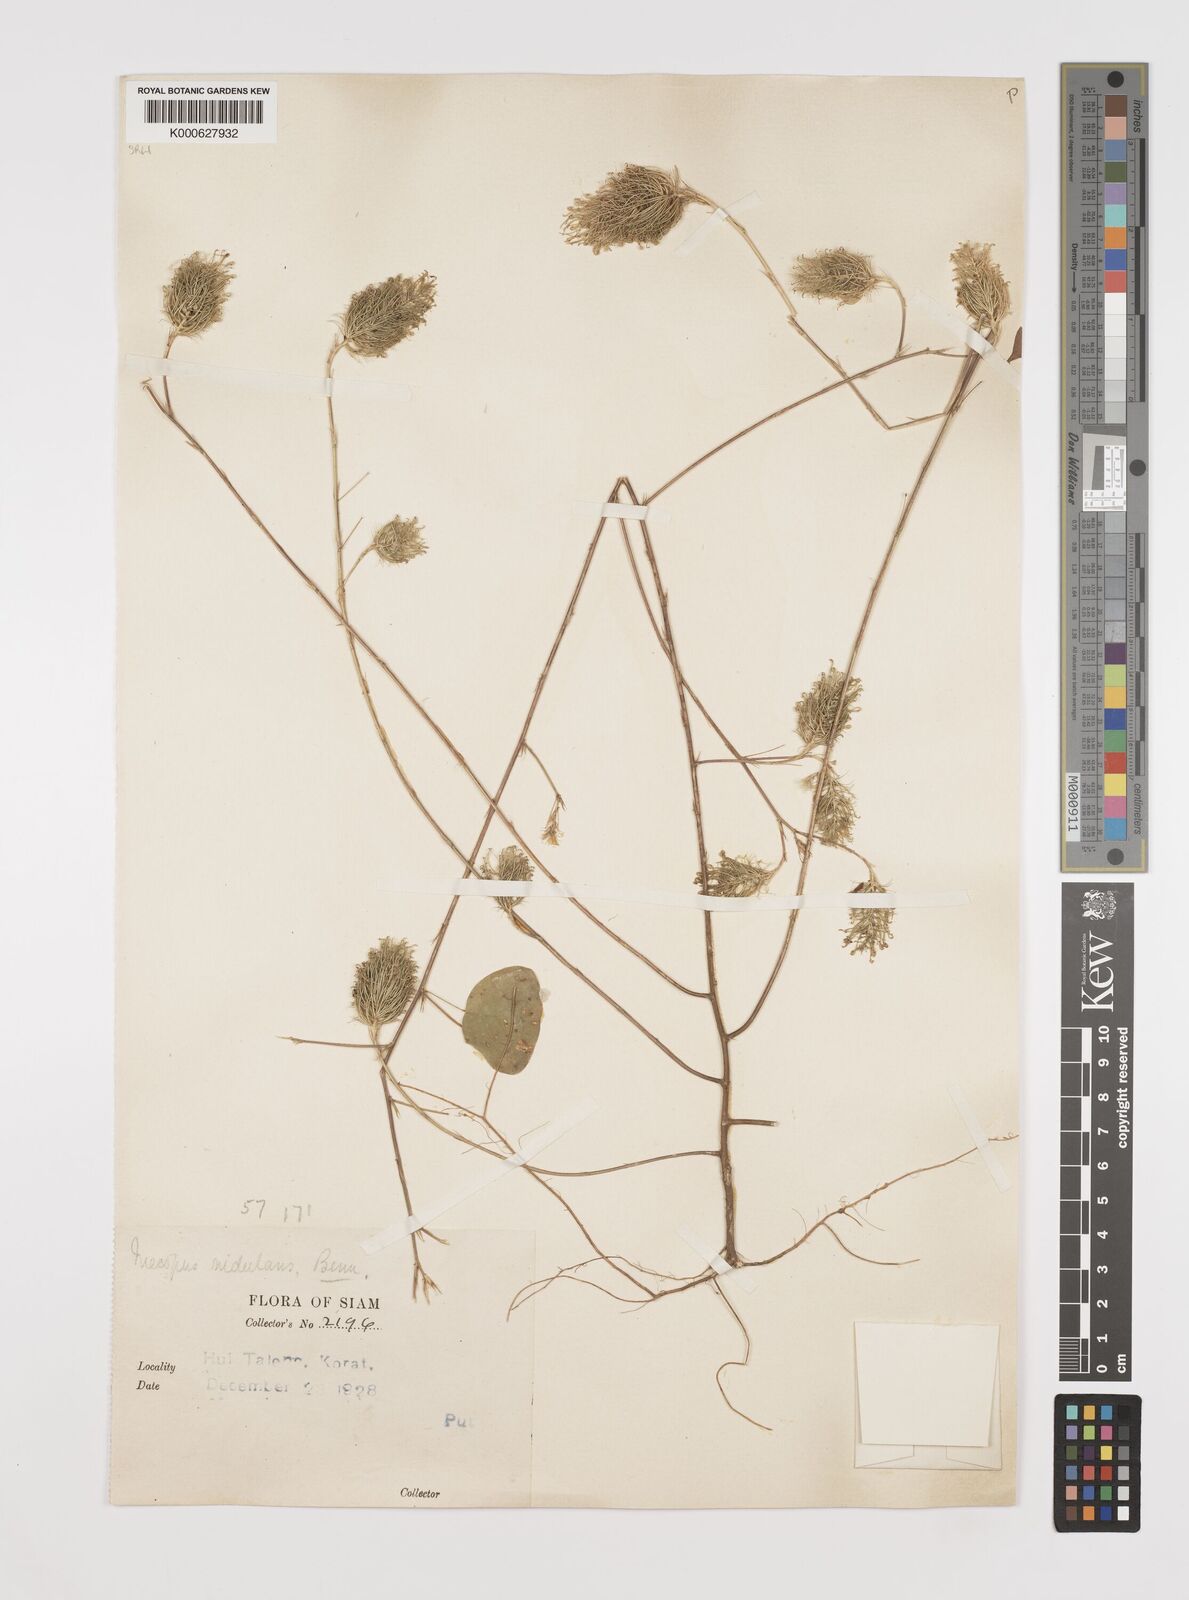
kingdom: Plantae
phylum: Tracheophyta
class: Magnoliopsida
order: Fabales
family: Fabaceae
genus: Mecopus
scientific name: Mecopus nidulans
